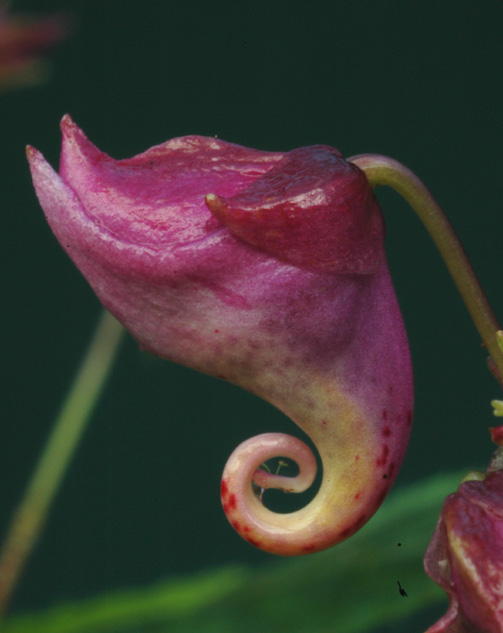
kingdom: Plantae
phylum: Tracheophyta
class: Magnoliopsida
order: Ericales
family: Balsaminaceae
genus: Impatiens
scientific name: Impatiens textorii
